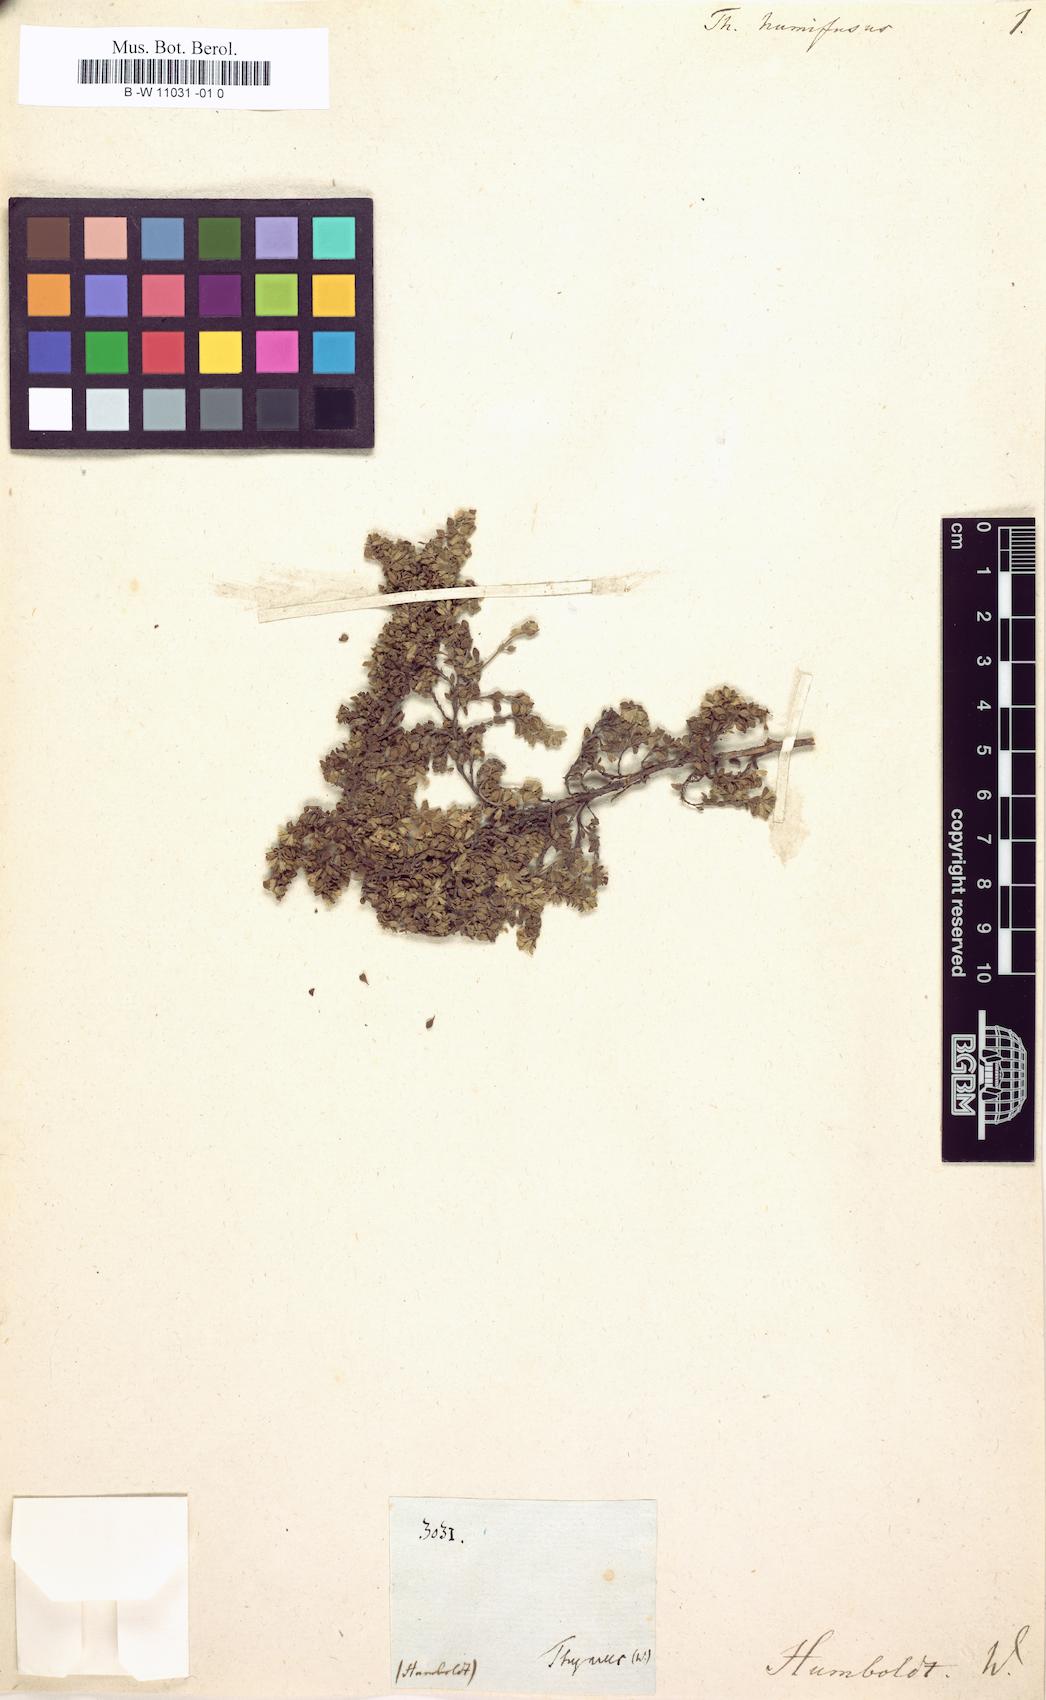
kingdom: Plantae
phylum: Tracheophyta
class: Magnoliopsida
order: Lamiales
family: Lamiaceae
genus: Clinopodium
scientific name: Clinopodium nubigenum
